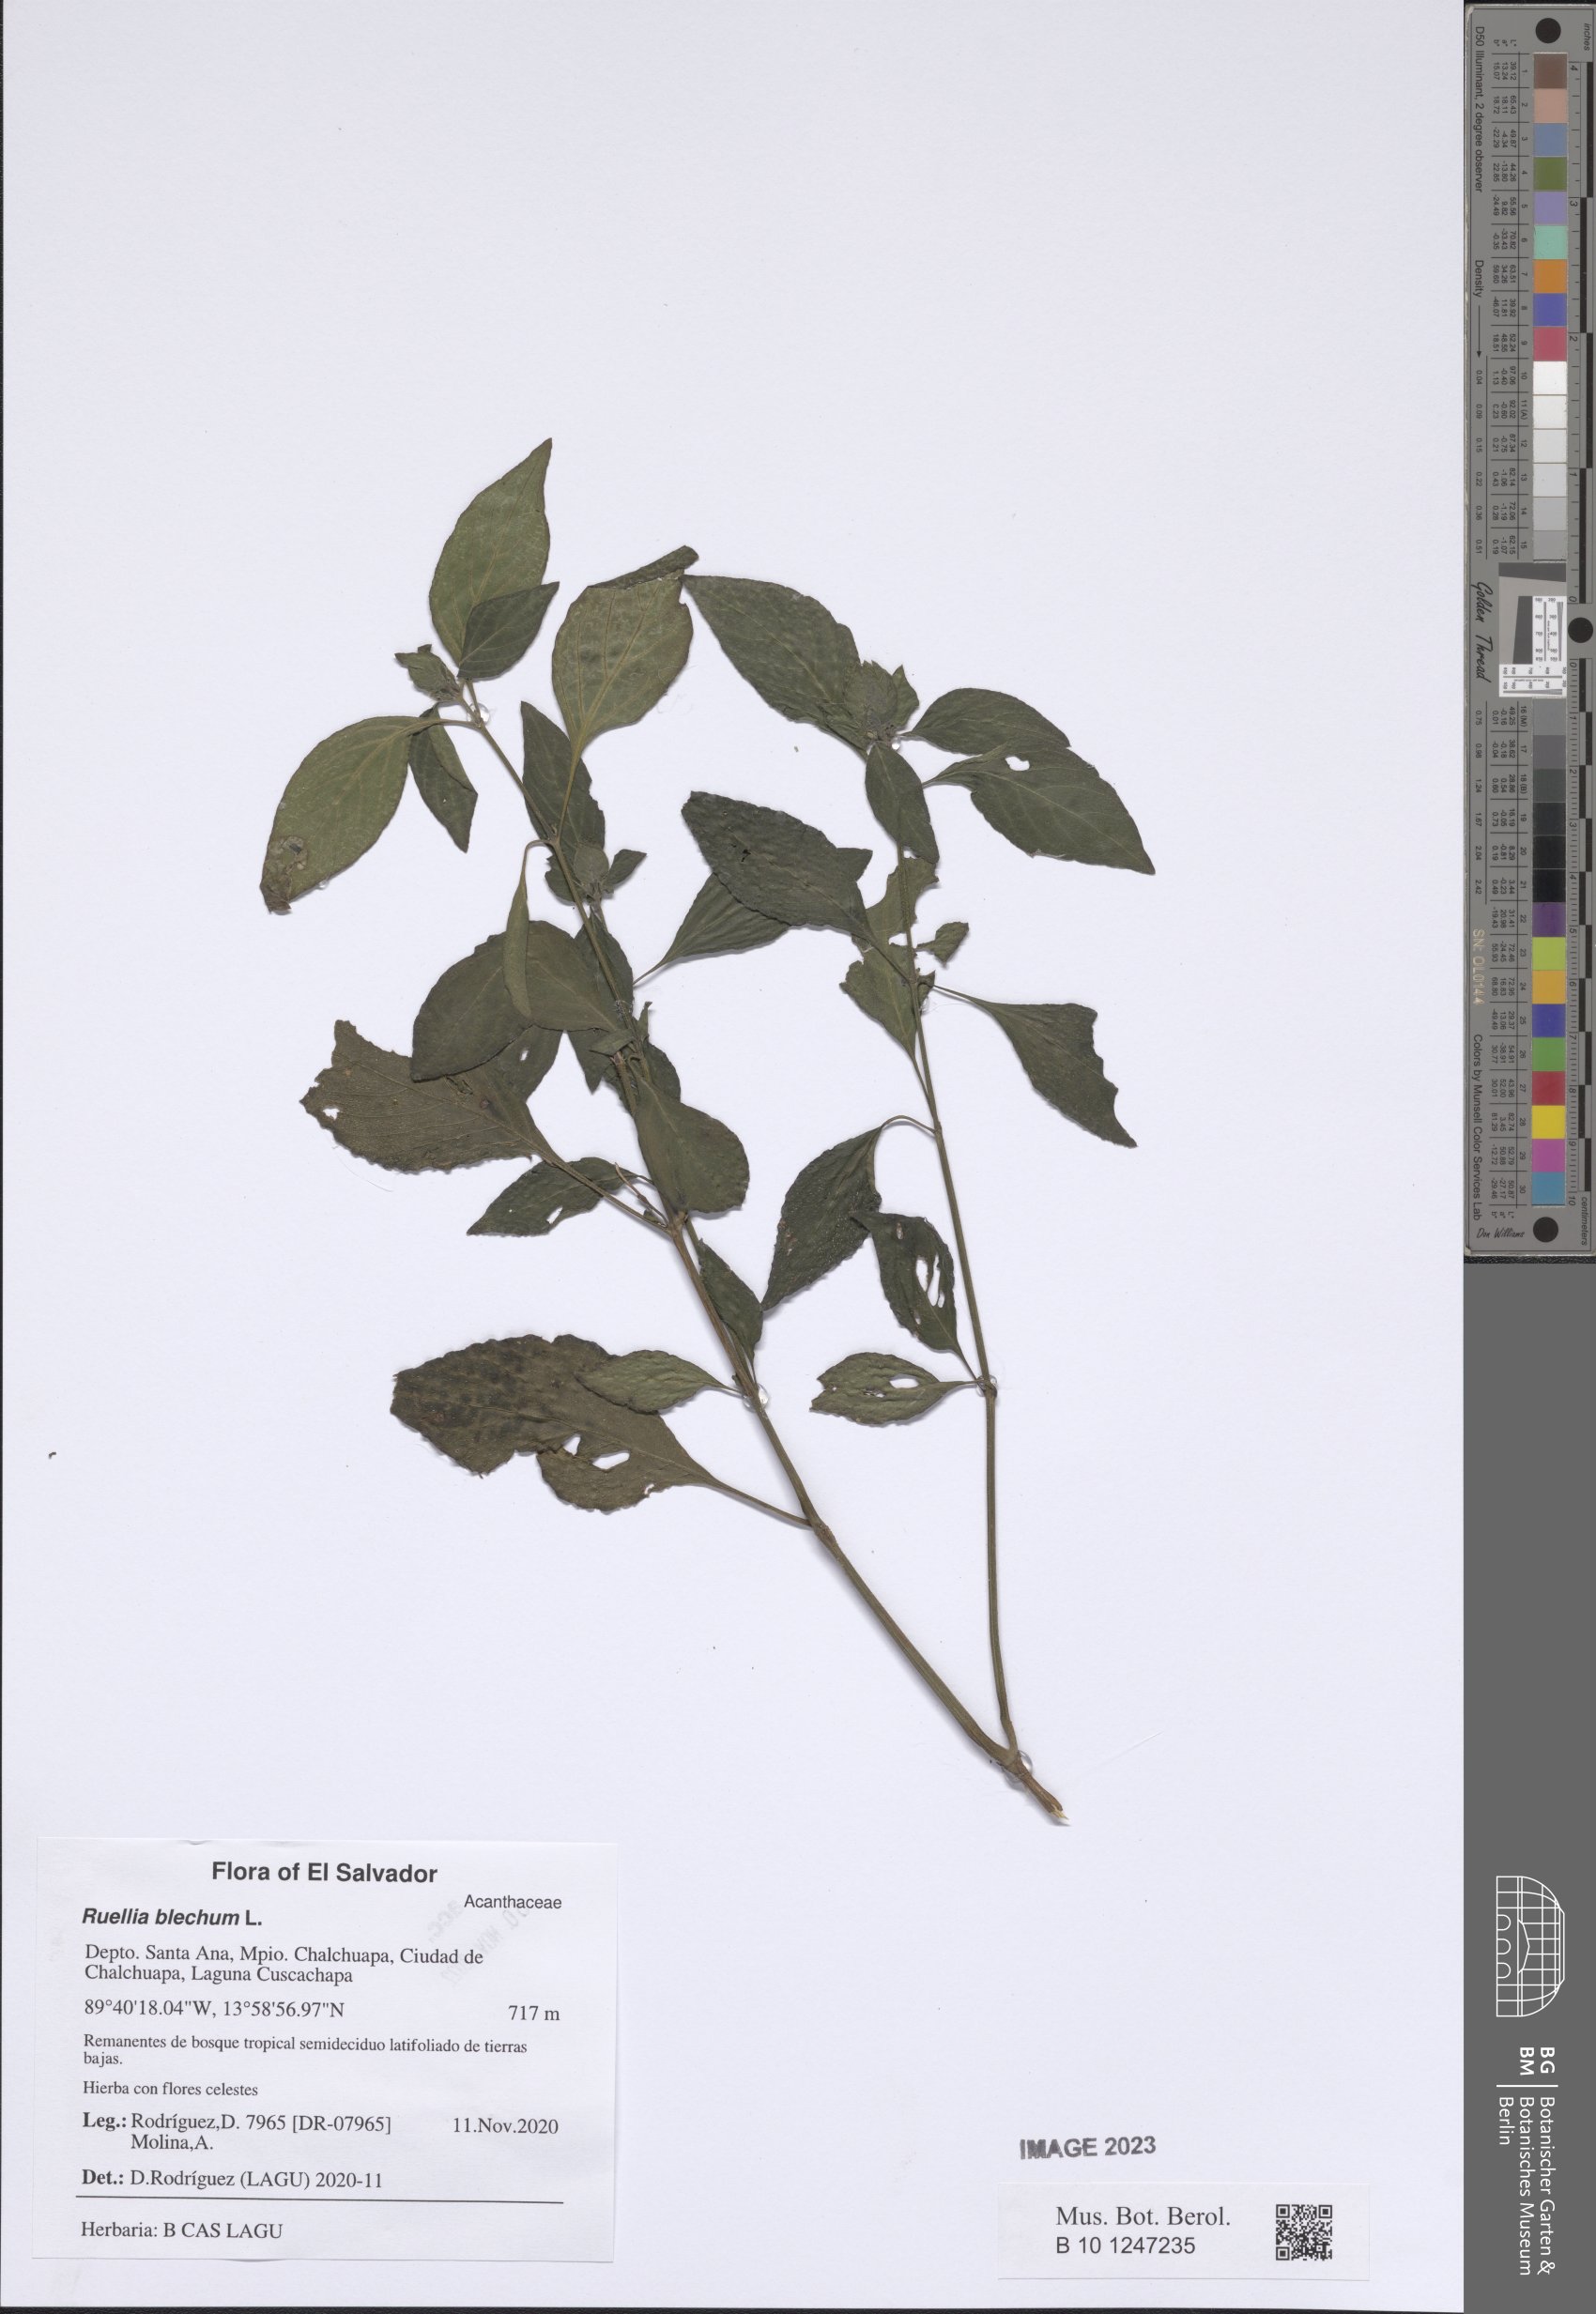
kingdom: Plantae
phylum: Tracheophyta
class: Magnoliopsida
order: Lamiales
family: Acanthaceae
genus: Ruellia
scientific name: Ruellia blechum
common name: Browne's blechum
